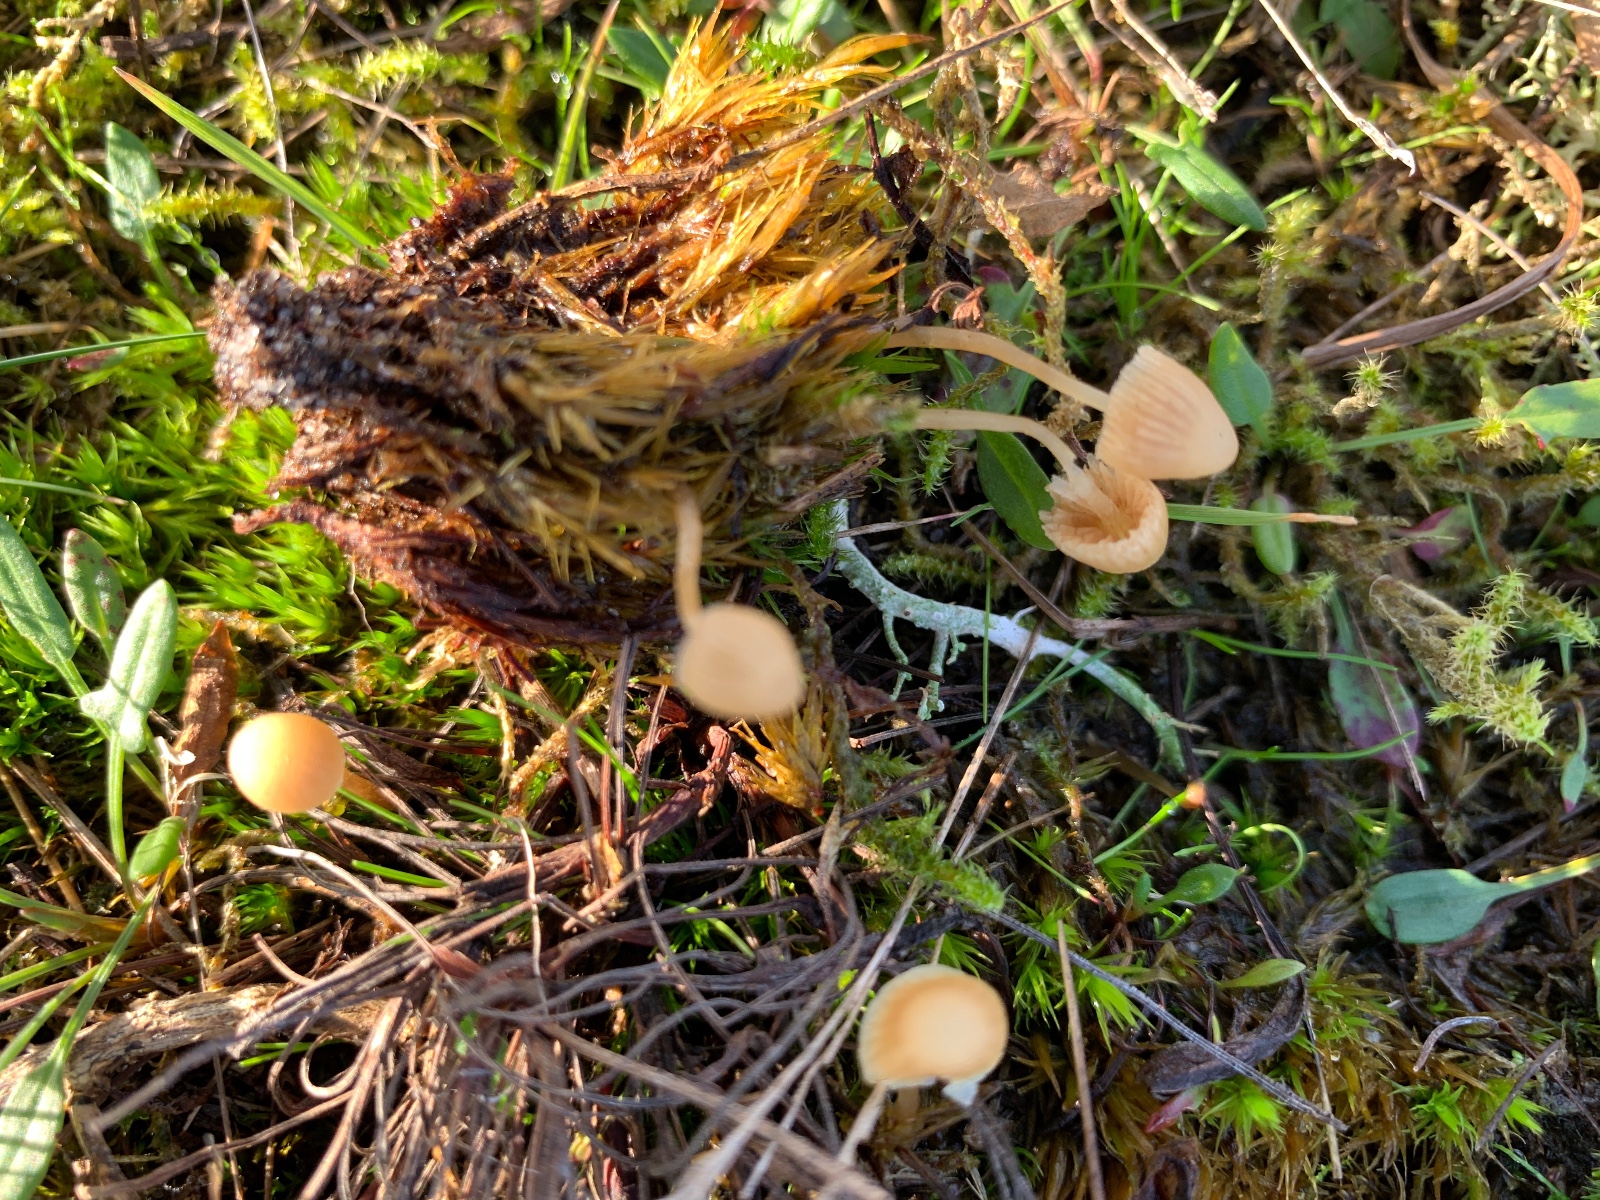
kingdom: Fungi
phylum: Basidiomycota
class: Agaricomycetes
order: Agaricales
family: Hymenogastraceae
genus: Galerina
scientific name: Galerina mniophila
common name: olivengul hjelmhat
